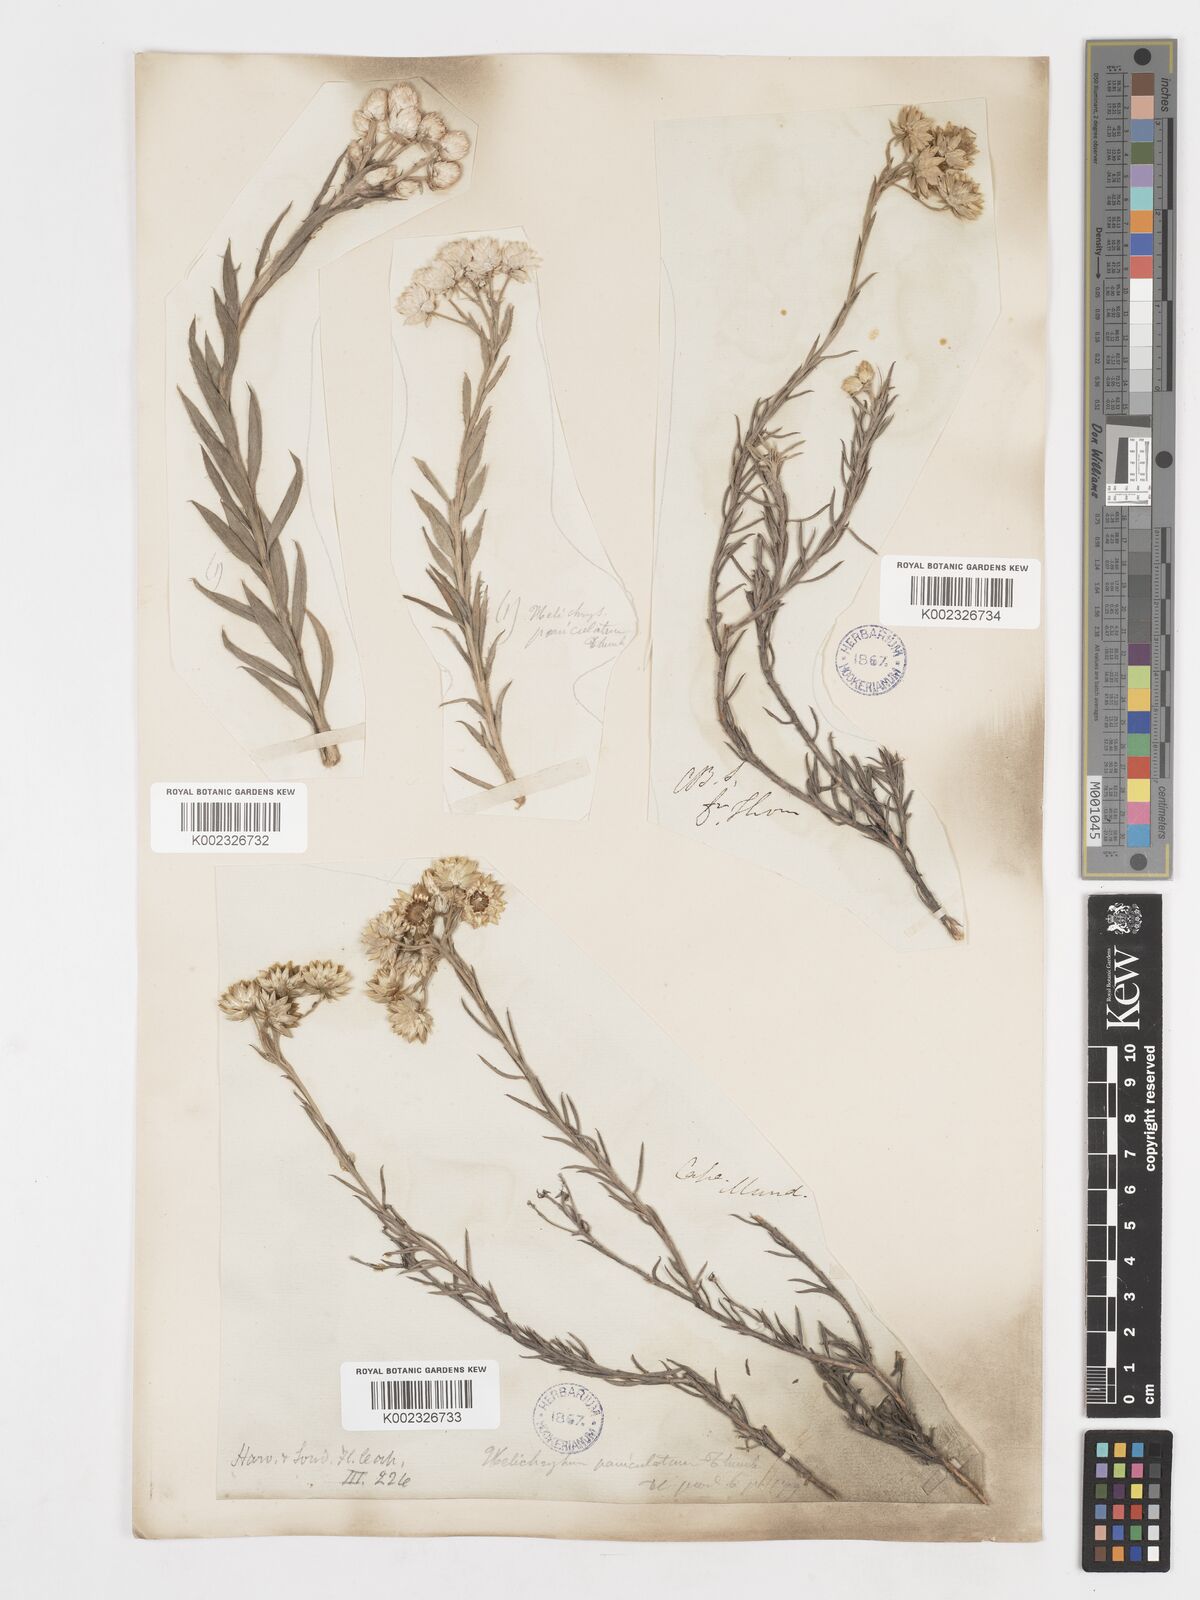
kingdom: Plantae
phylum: Tracheophyta
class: Magnoliopsida
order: Asterales
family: Asteraceae
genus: Achyranthemum
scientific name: Achyranthemum paniculatum
